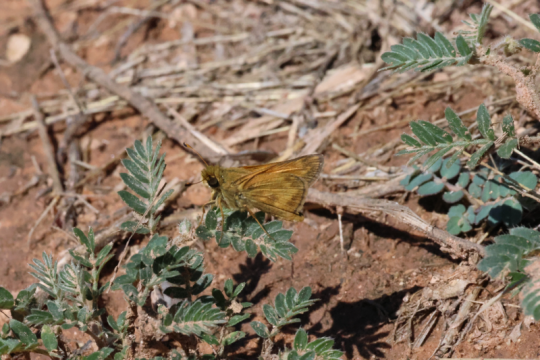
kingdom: Animalia
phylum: Arthropoda
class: Insecta
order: Lepidoptera
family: Hesperiidae
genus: Hylephila
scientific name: Hylephila phyleus
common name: Fiery Skipper
